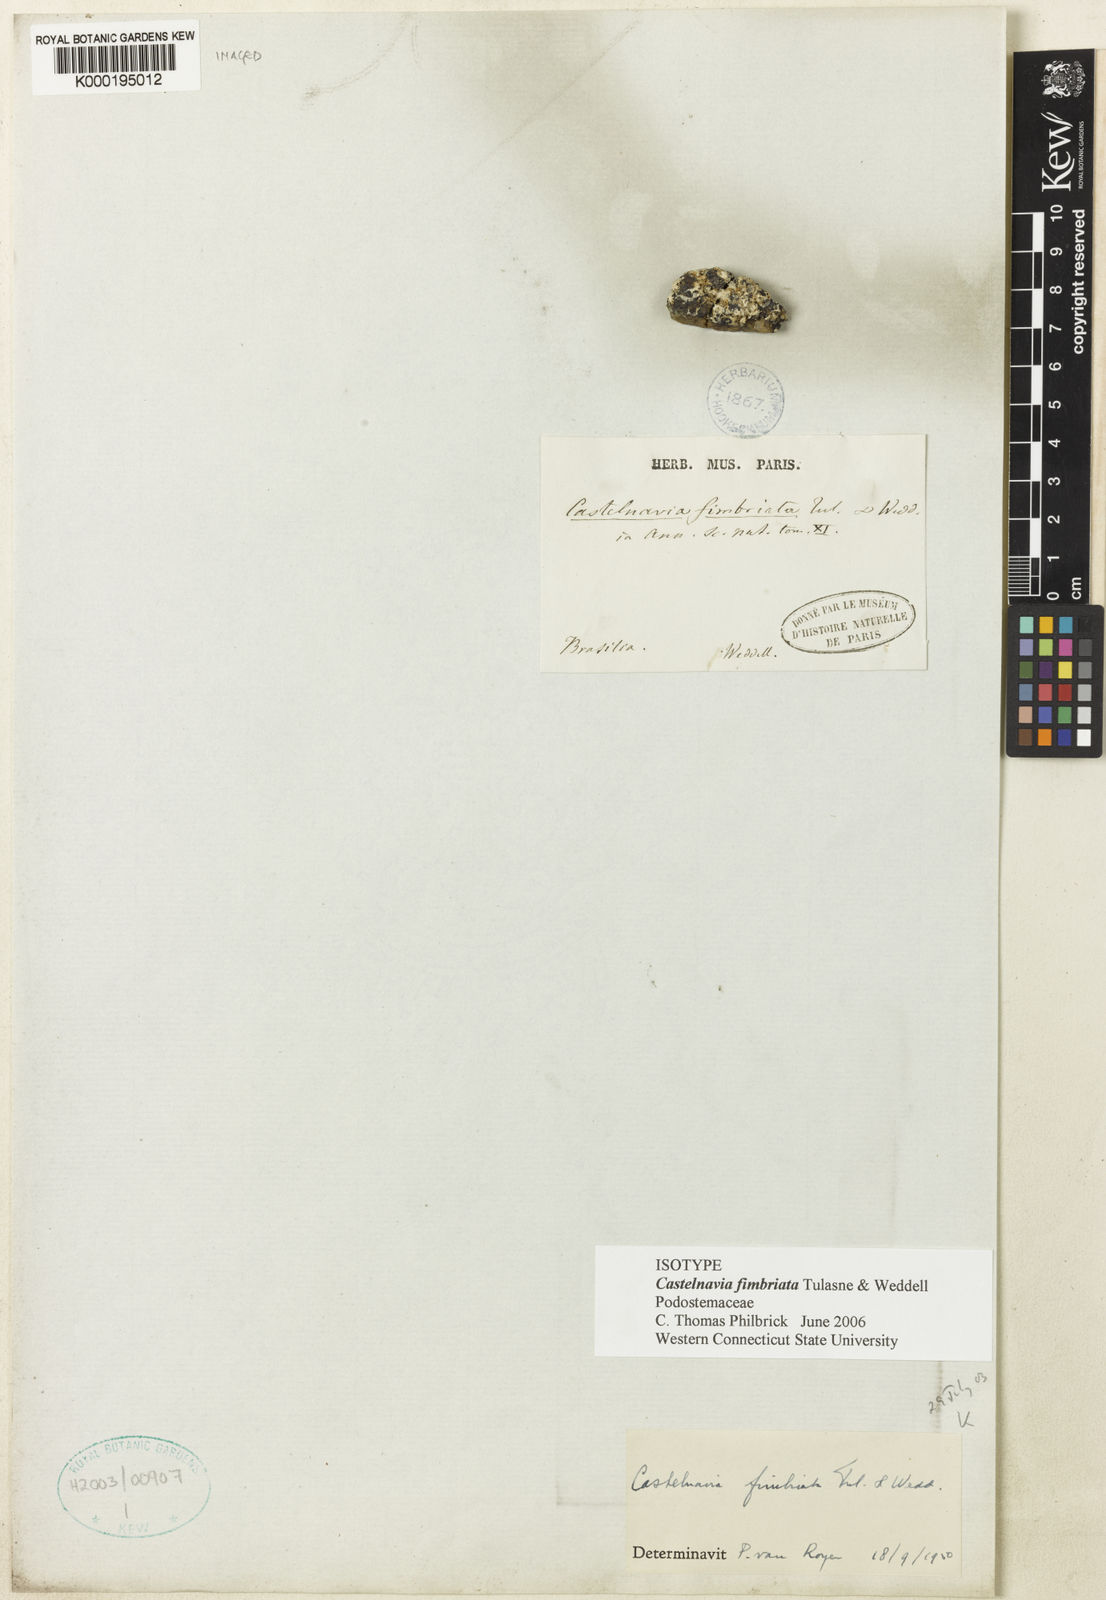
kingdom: Plantae
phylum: Tracheophyta
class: Magnoliopsida
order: Malpighiales
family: Podostemaceae
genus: Castelnavia
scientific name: Castelnavia multipartita
